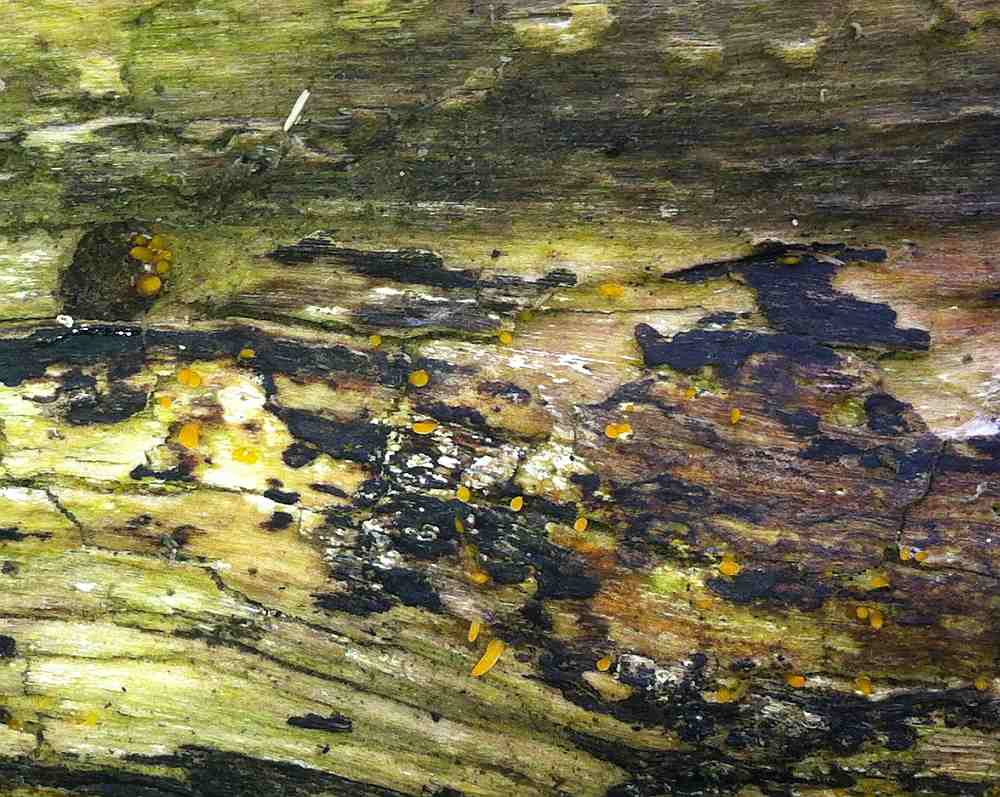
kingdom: Fungi
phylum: Basidiomycota
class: Dacrymycetes
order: Dacrymycetales
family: Dacrymycetaceae
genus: Calocera
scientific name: Calocera cornea
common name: liden guldgaffel
